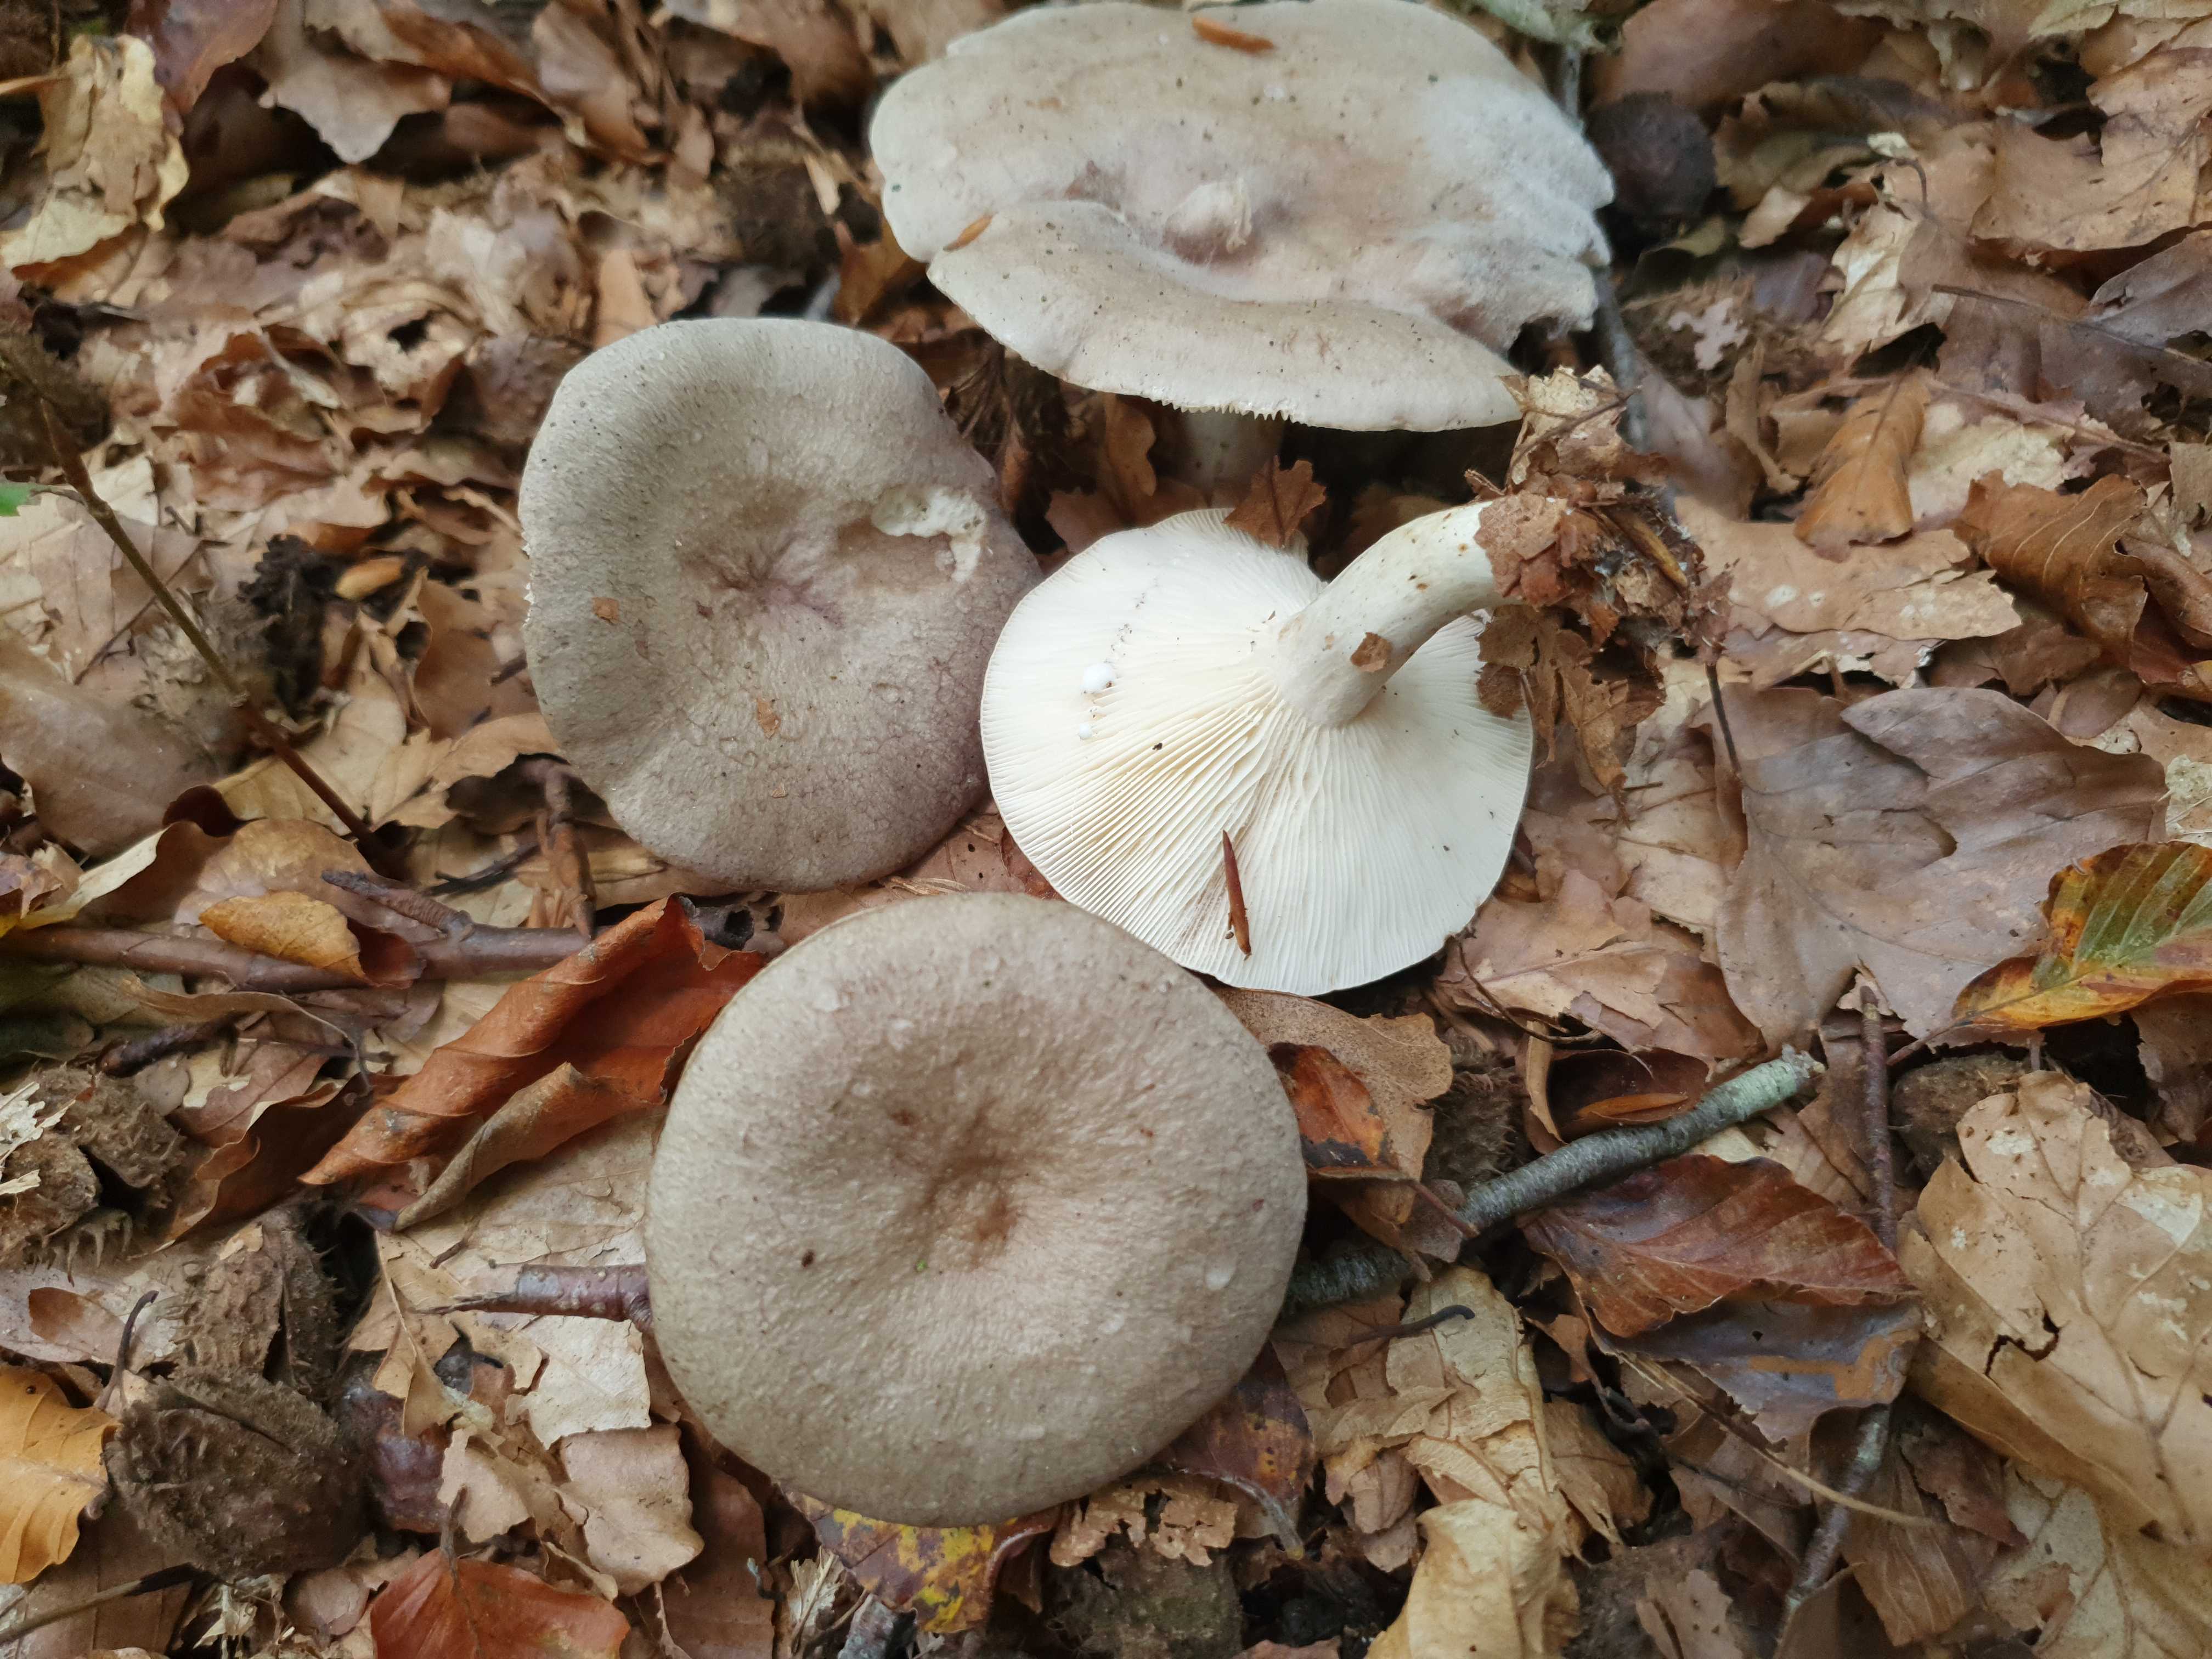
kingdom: Fungi
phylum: Basidiomycota
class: Agaricomycetes
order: Russulales
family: Russulaceae
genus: Lactarius
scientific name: Lactarius blennius
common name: dråbeplettet mælkehat
